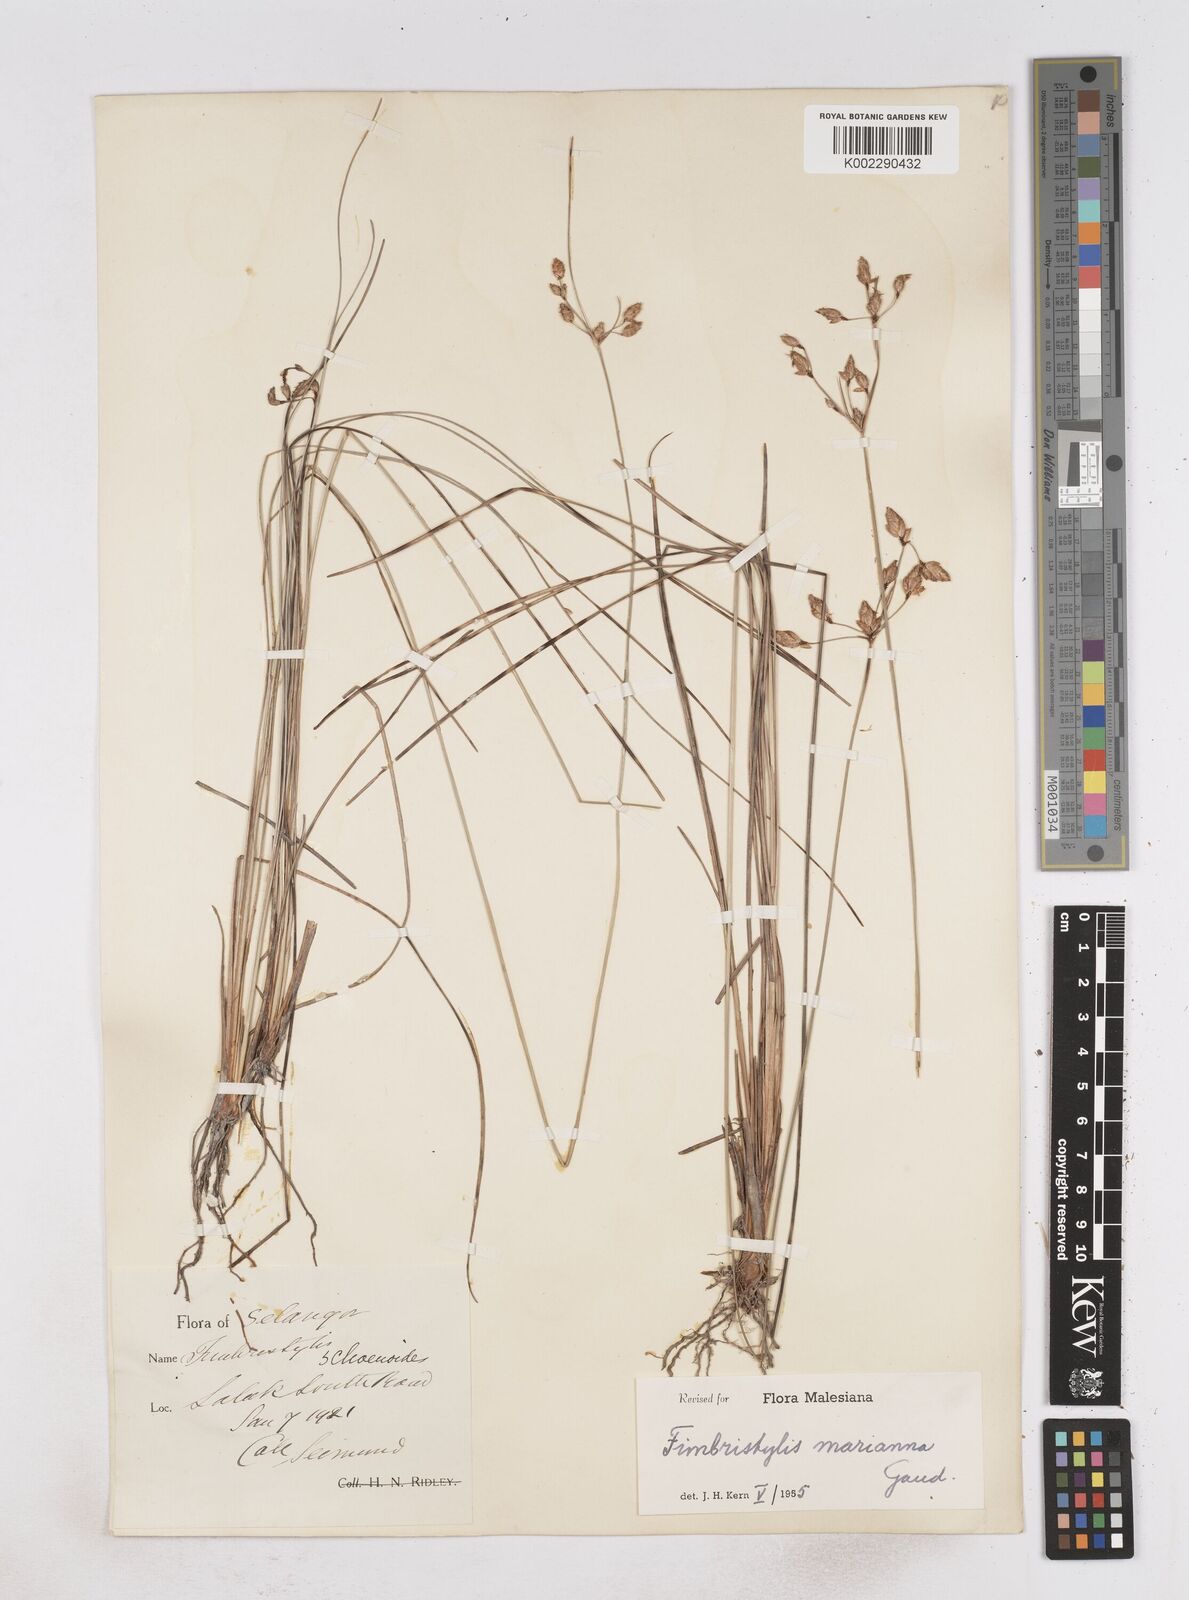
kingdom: Plantae
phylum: Tracheophyta
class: Liliopsida
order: Poales
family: Cyperaceae
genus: Fimbristylis
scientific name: Fimbristylis tristachya
